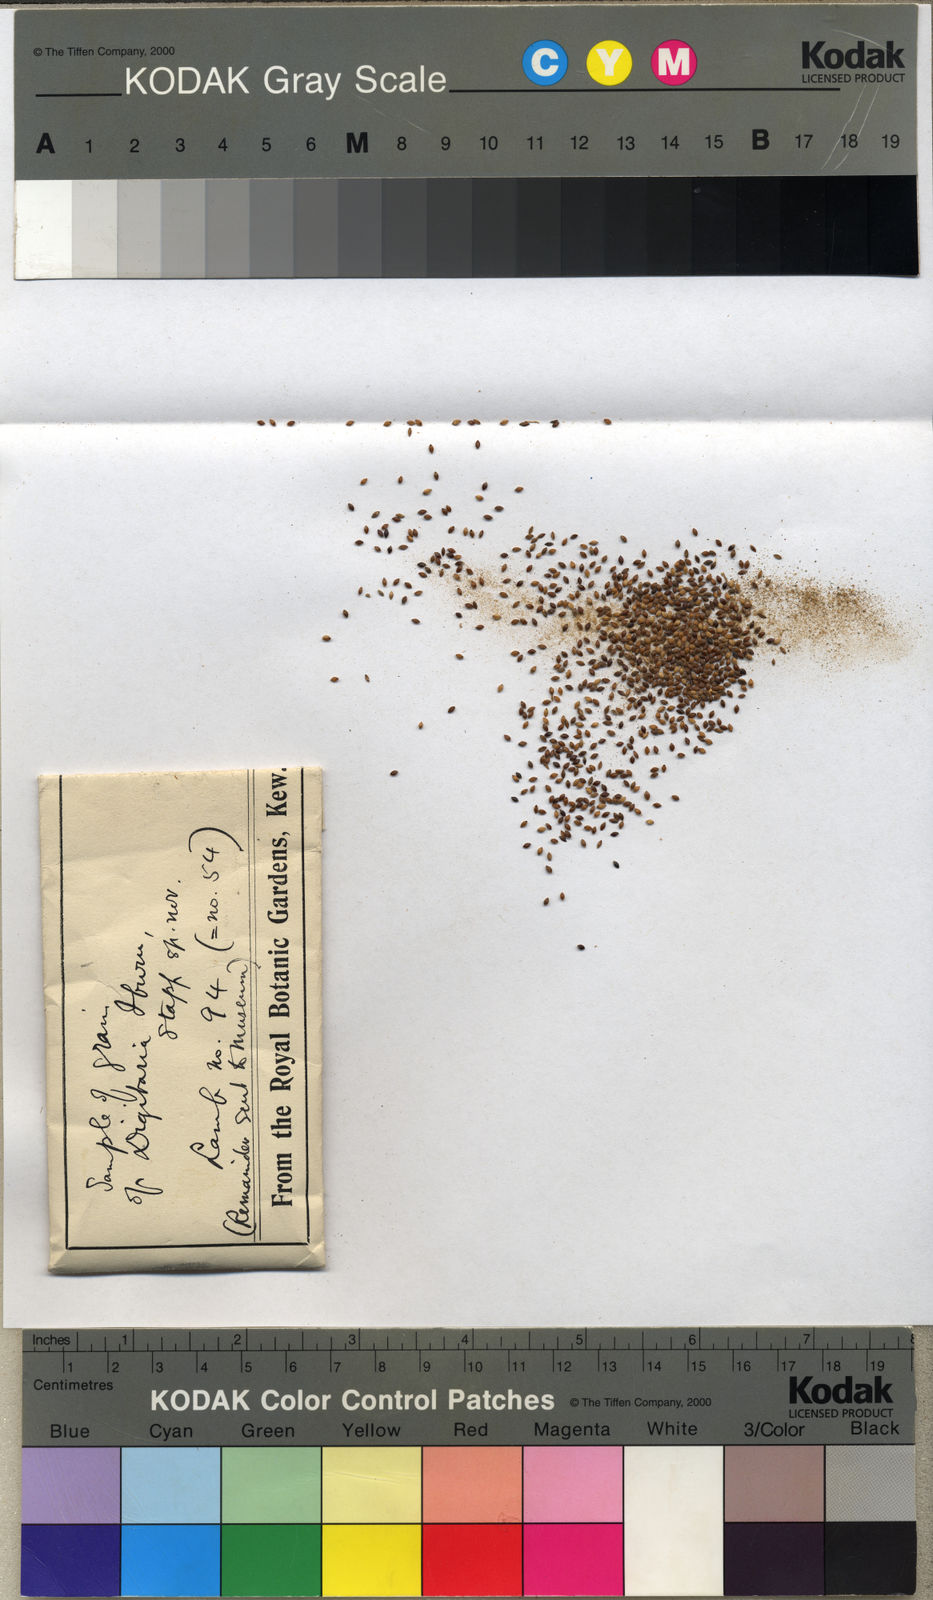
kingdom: Plantae
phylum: Tracheophyta
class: Liliopsida
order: Poales
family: Poaceae
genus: Digitaria
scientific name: Digitaria iburua
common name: Black acha
